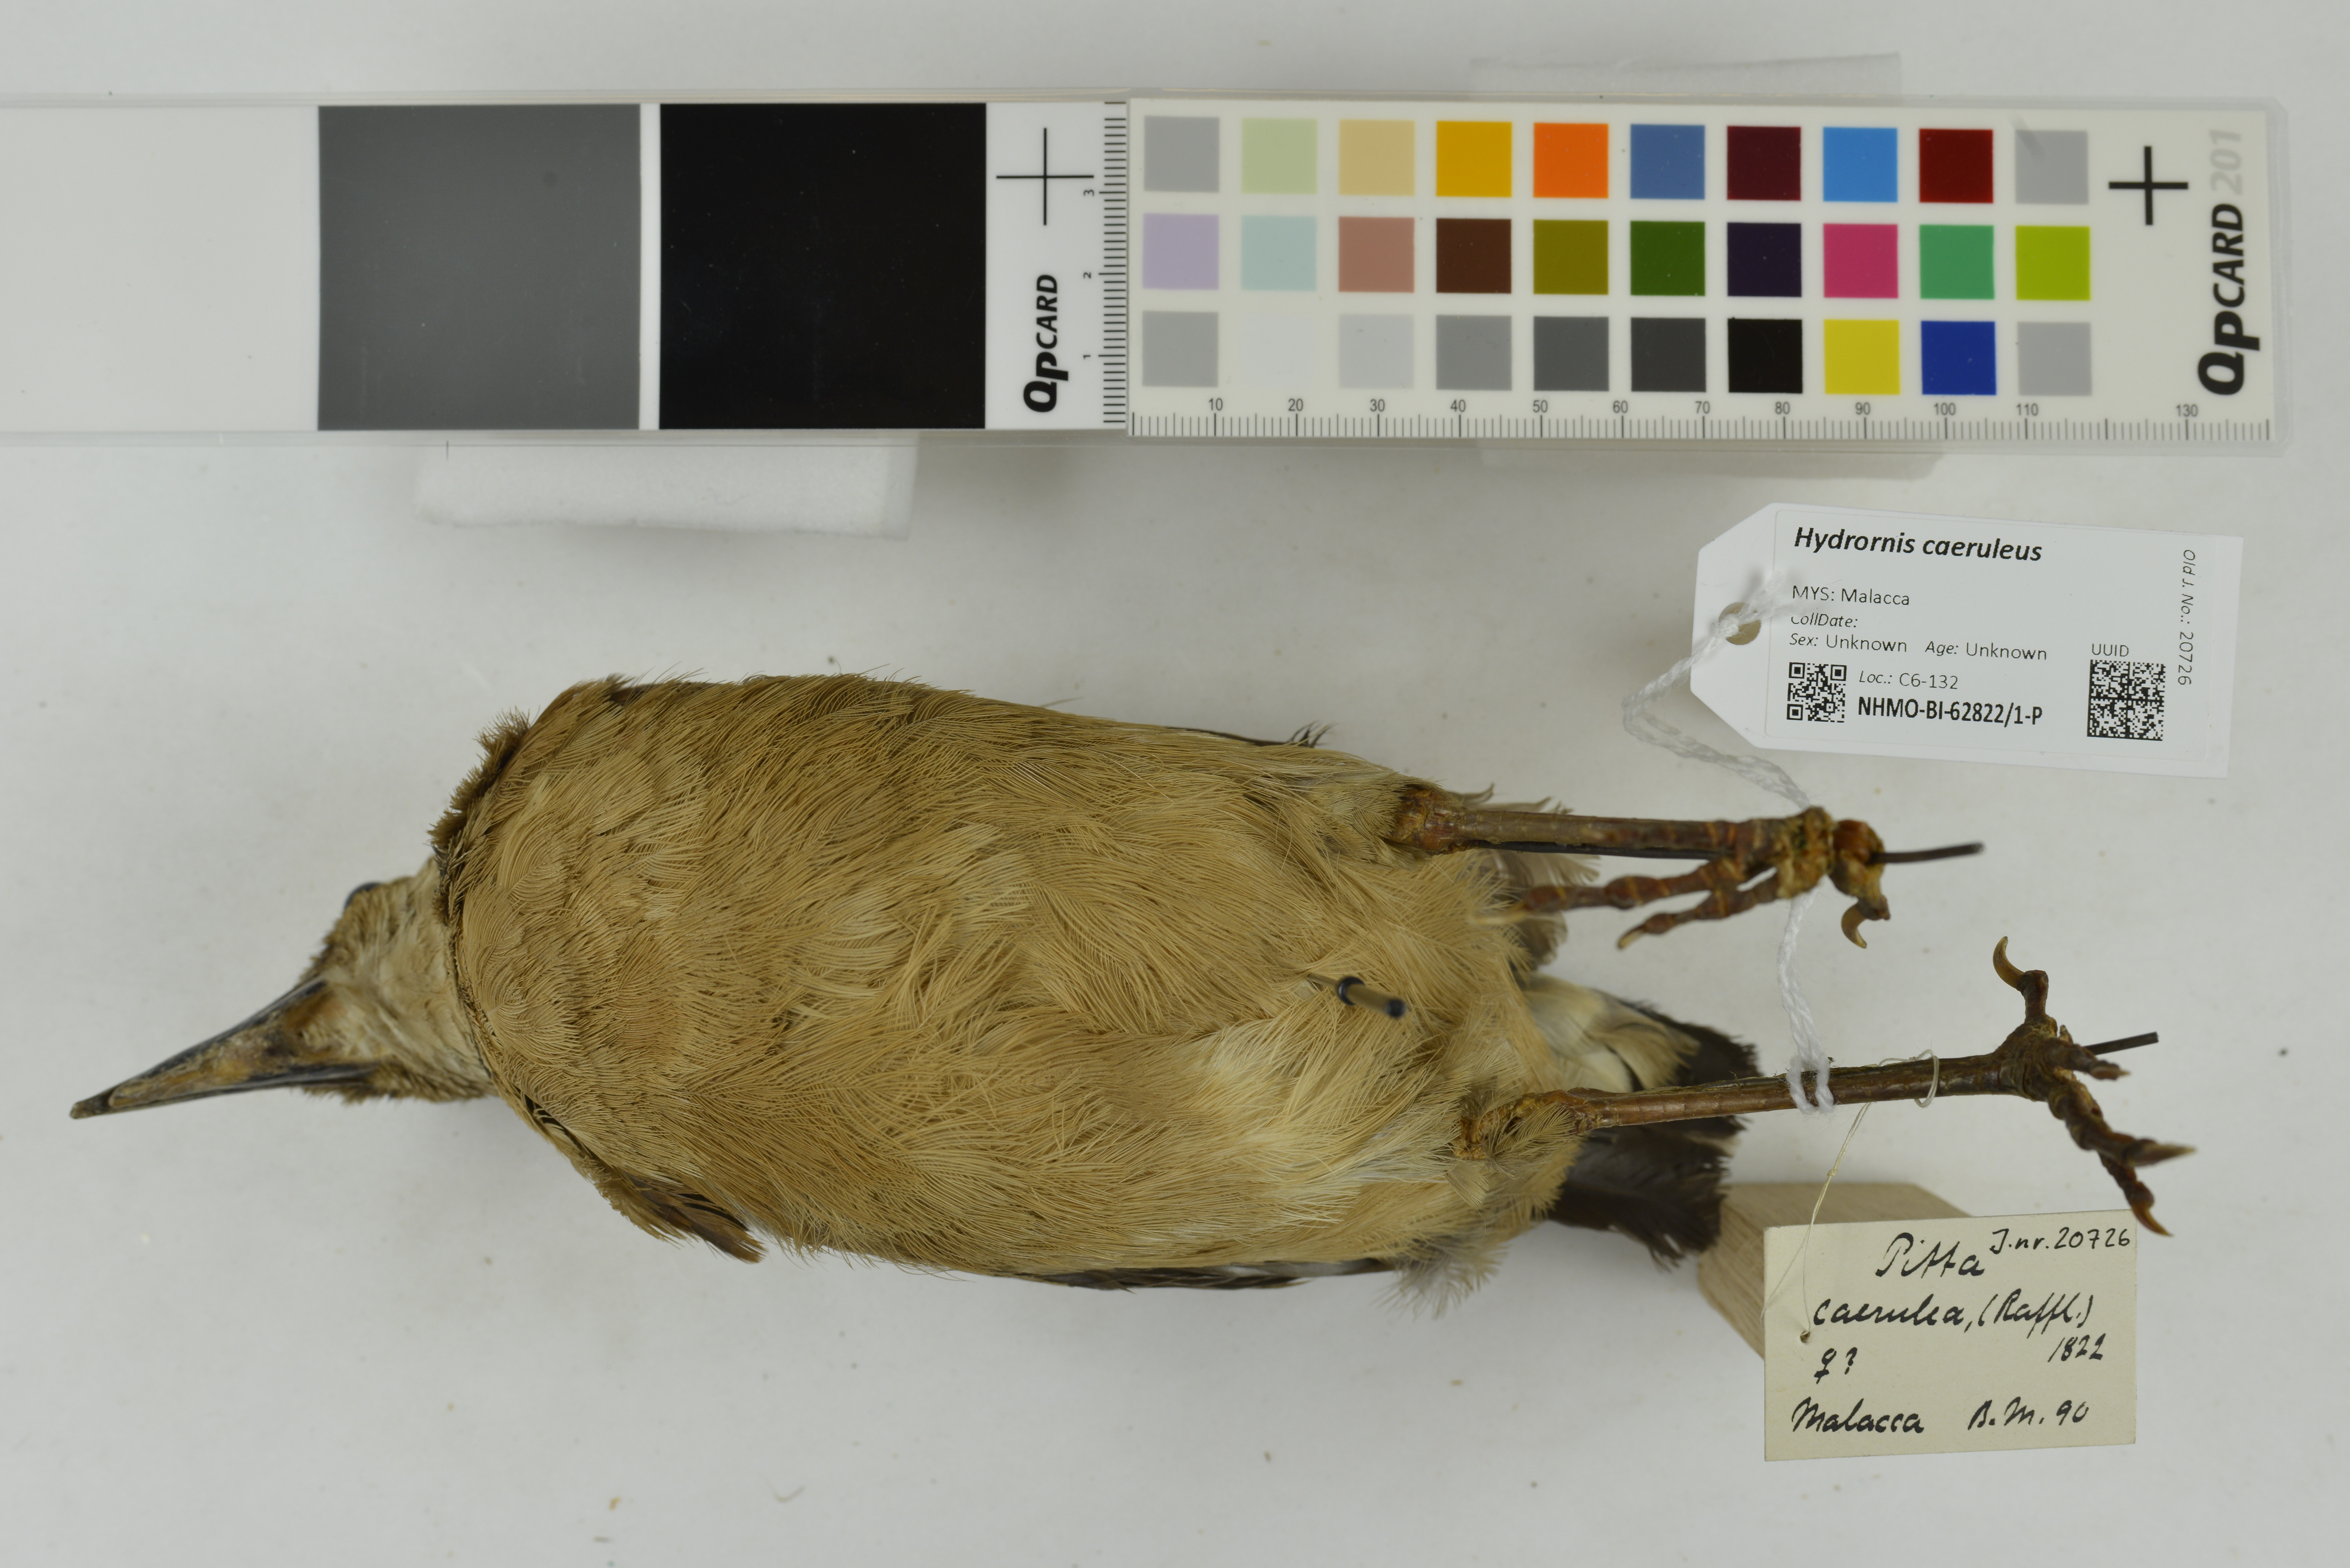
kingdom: Animalia
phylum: Chordata
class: Aves
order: Passeriformes
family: Pittidae
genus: Pitta
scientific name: Pitta caerulea
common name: Giant pitta
